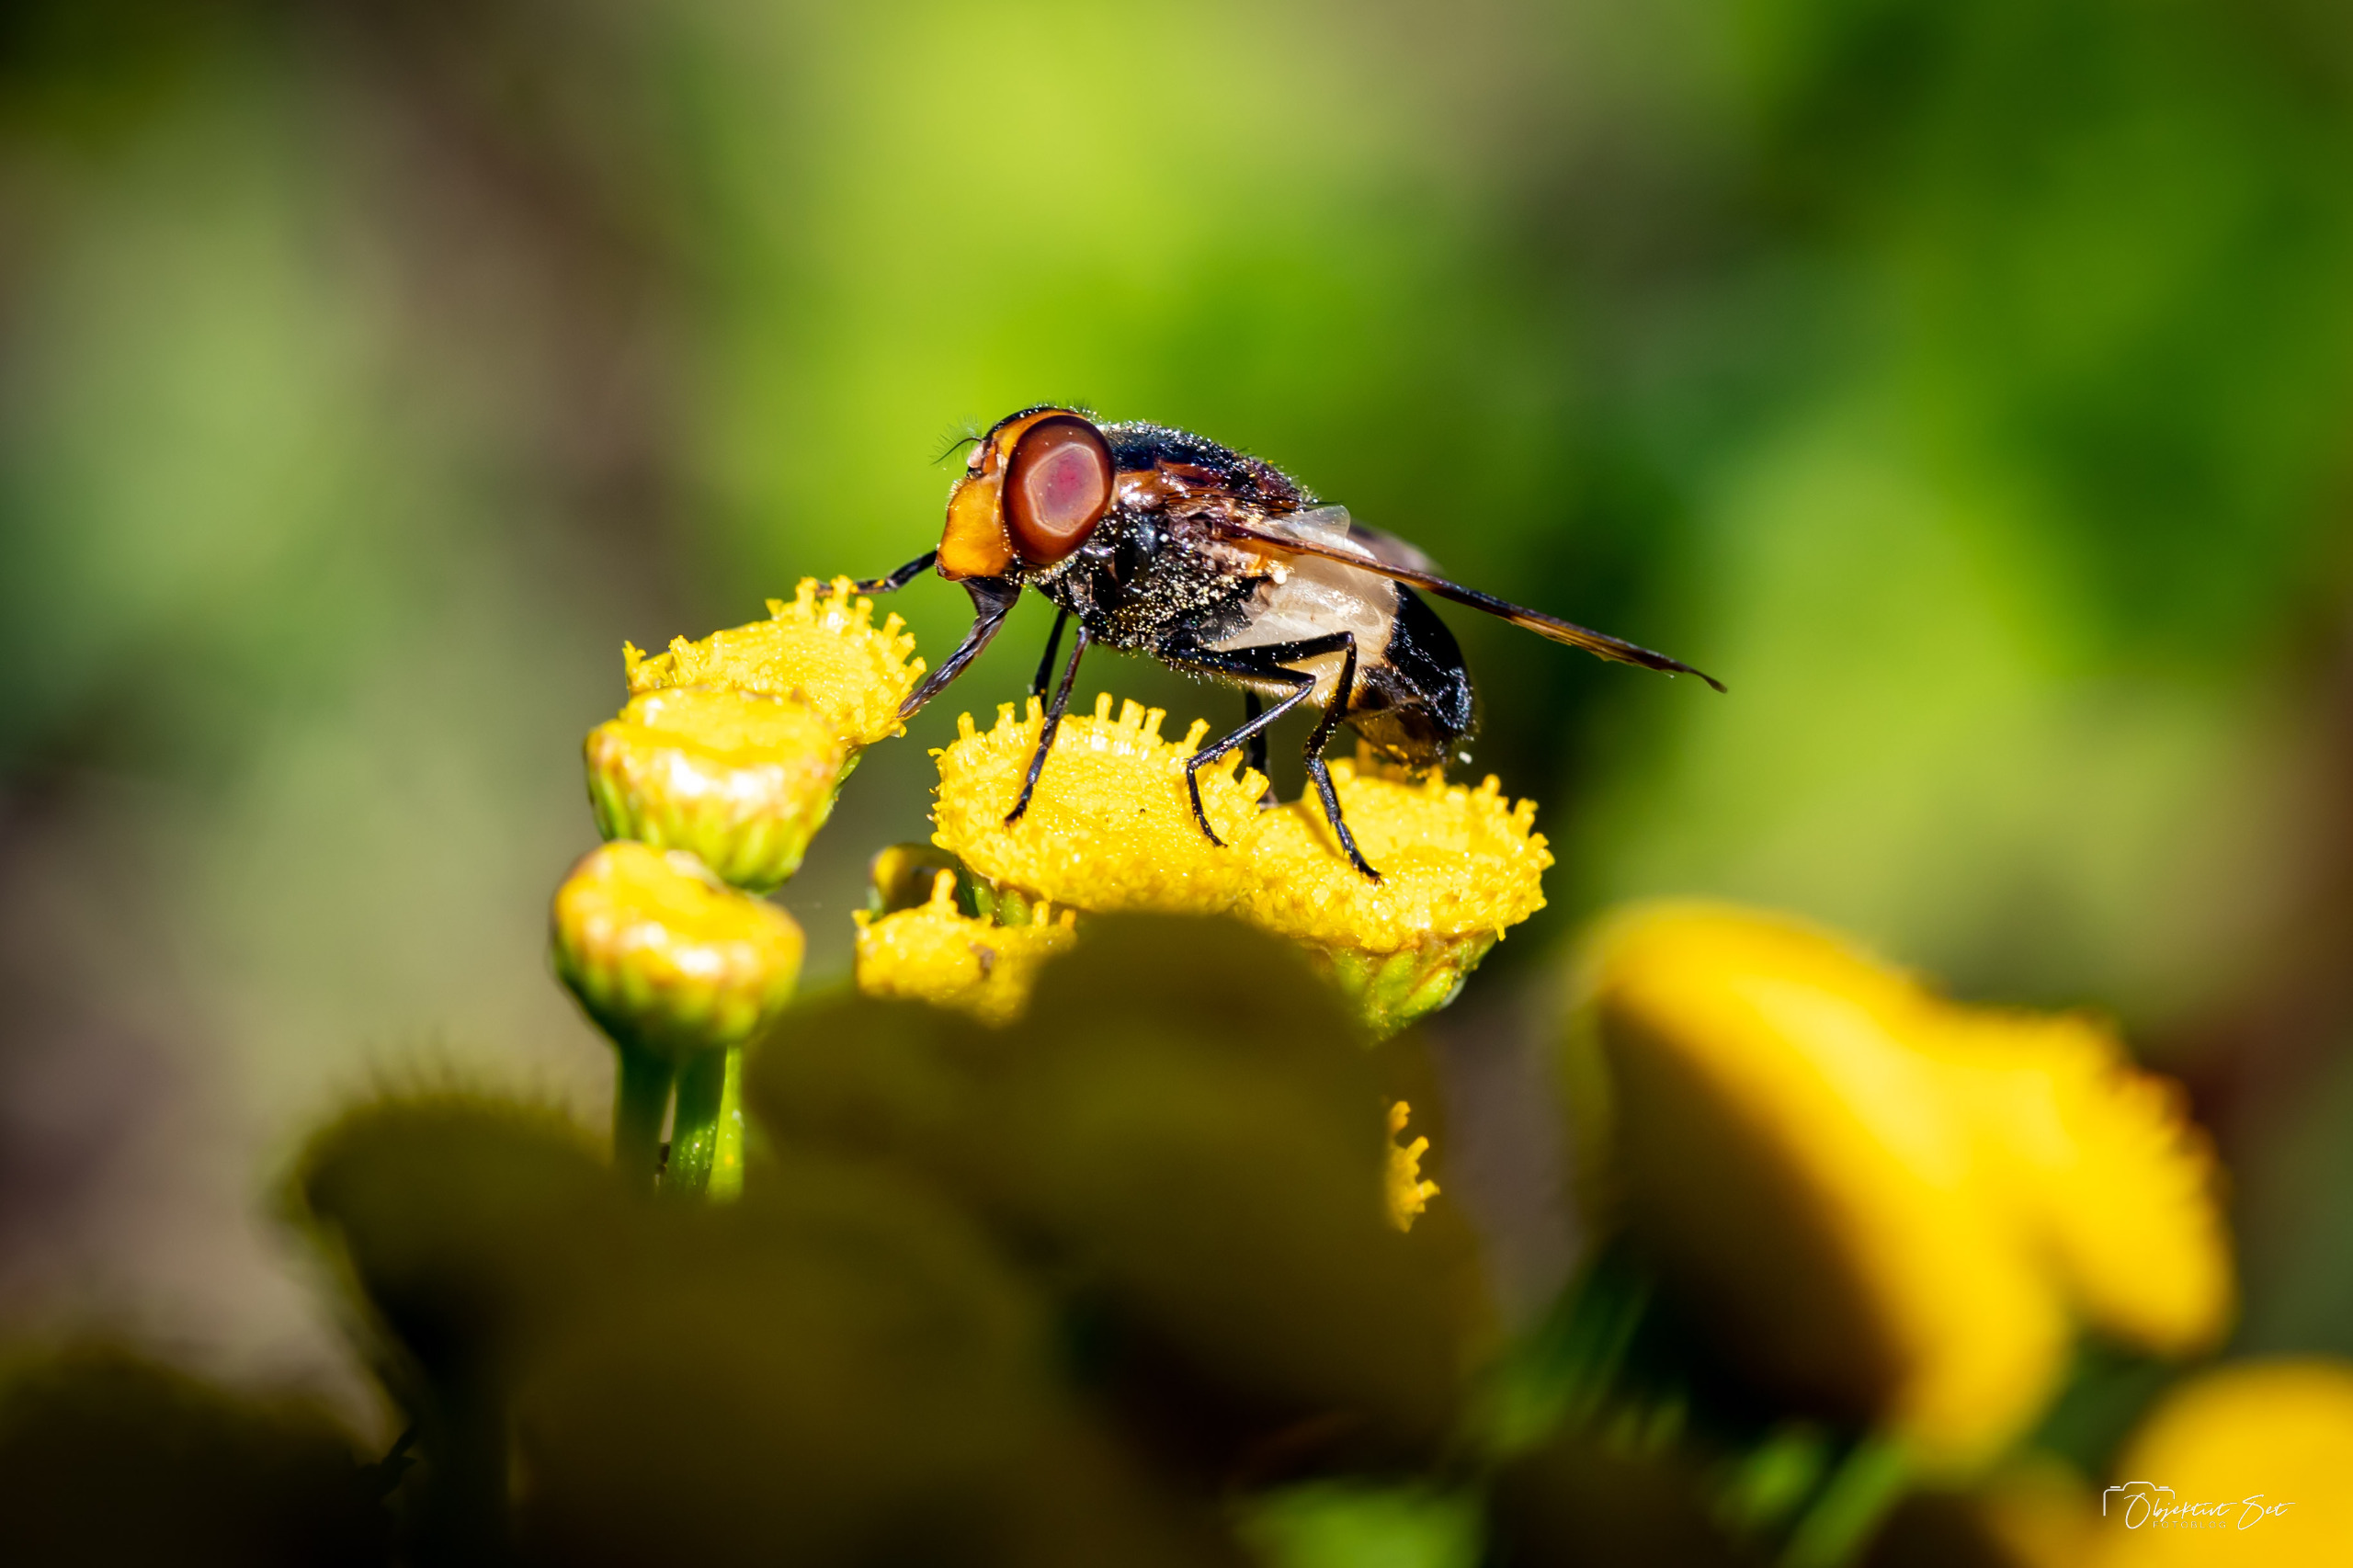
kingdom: Animalia
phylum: Arthropoda
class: Insecta
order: Diptera
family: Syrphidae
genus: Volucella
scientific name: Volucella pellucens
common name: Hvidbåndet humlesvirreflue
